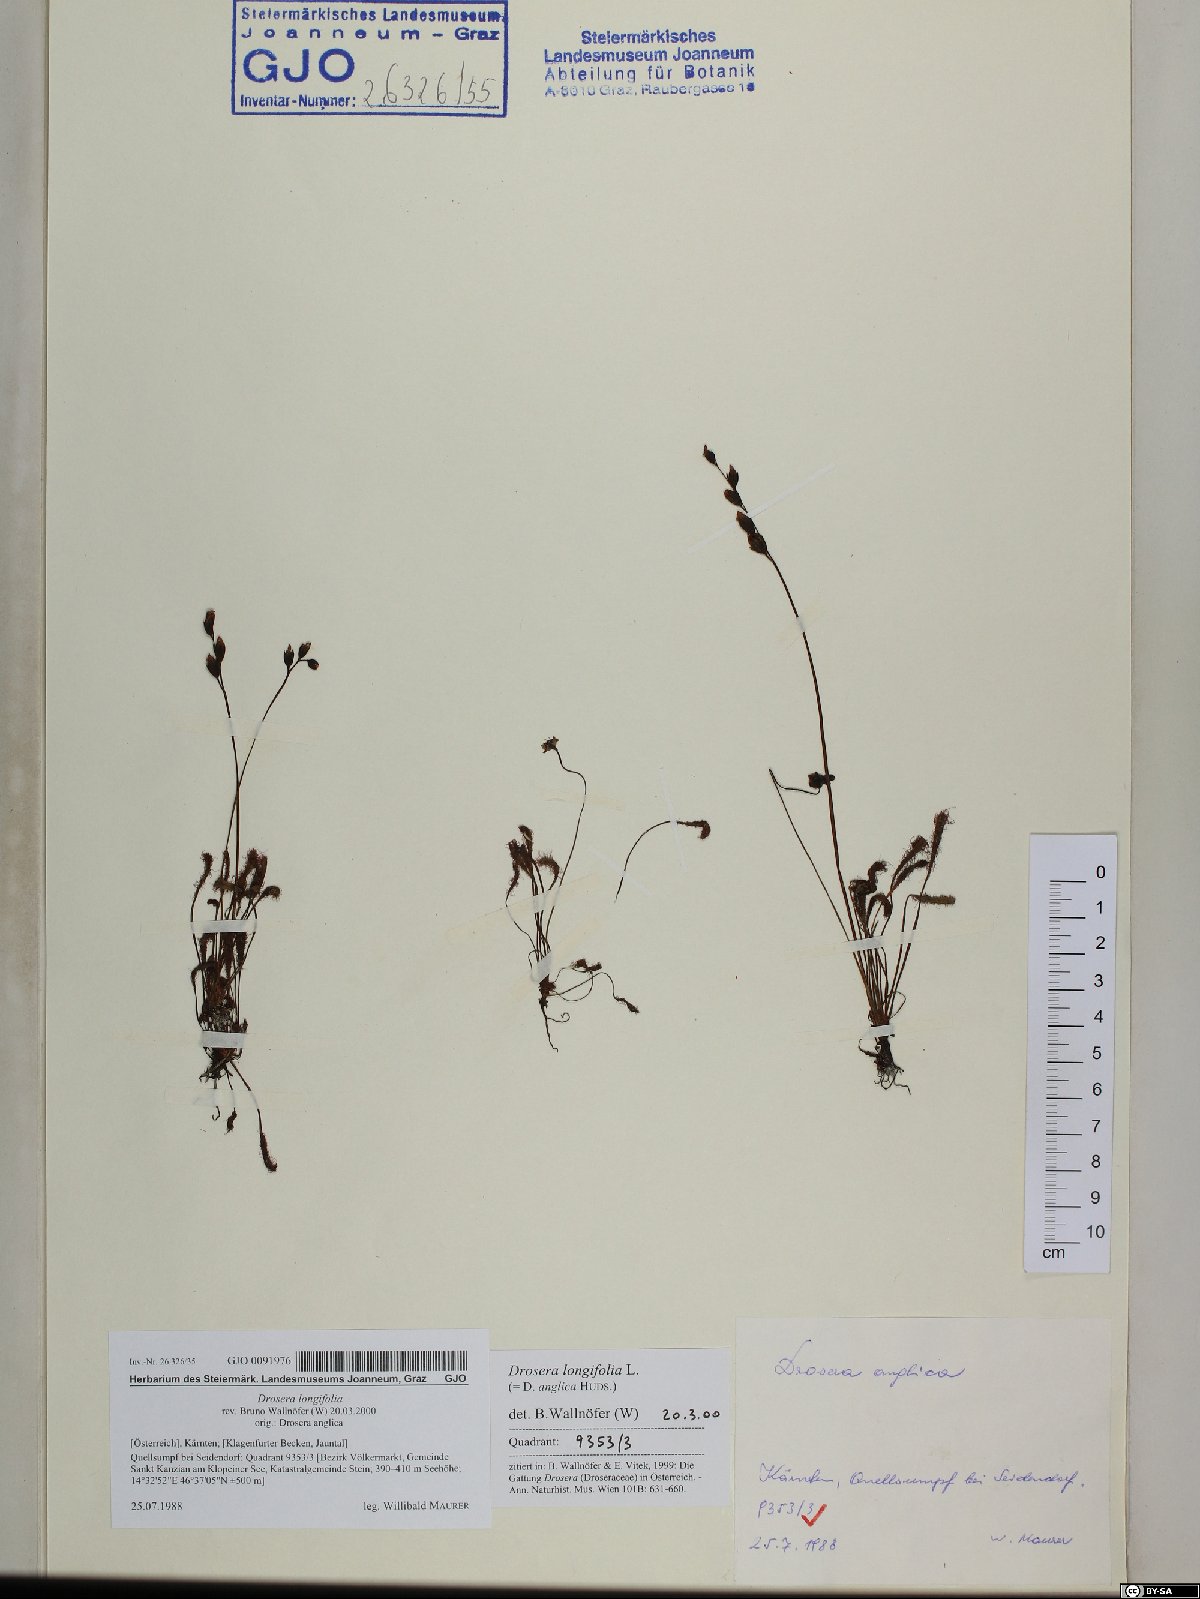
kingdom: Plantae
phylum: Tracheophyta
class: Magnoliopsida
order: Caryophyllales
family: Droseraceae
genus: Drosera
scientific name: Drosera anglica
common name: Great sundew
